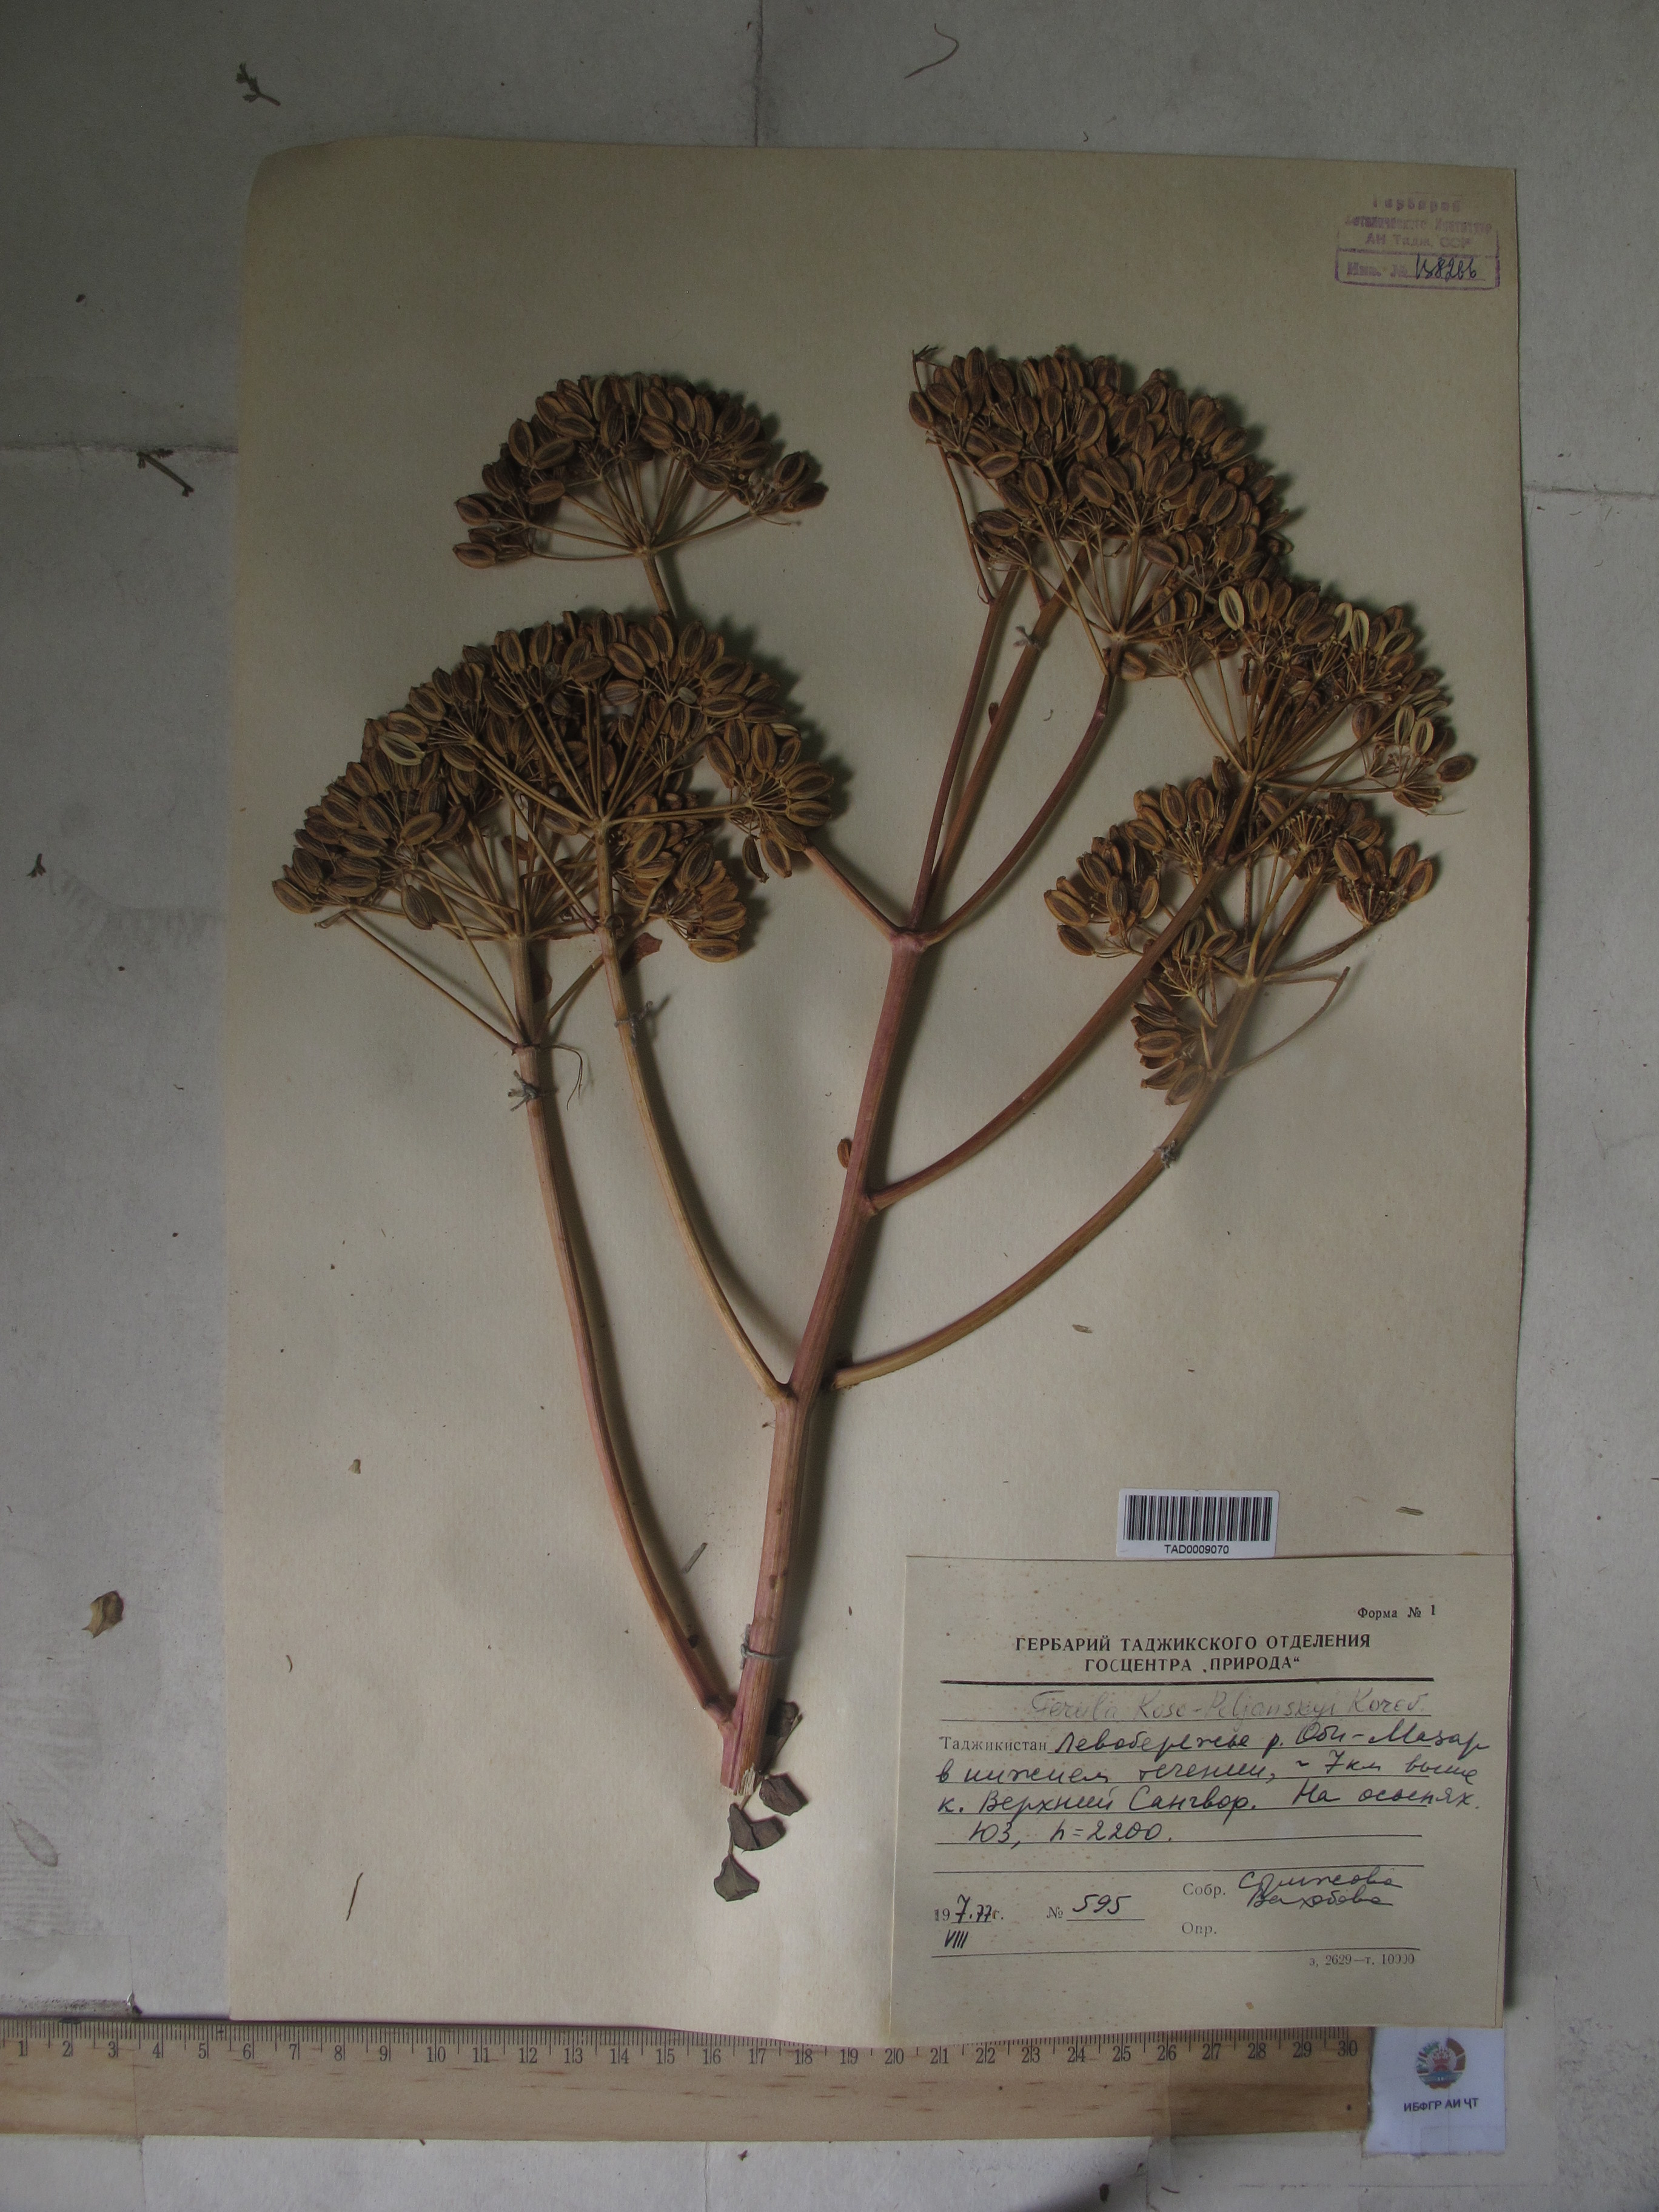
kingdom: Plantae
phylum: Tracheophyta
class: Magnoliopsida
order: Apiales
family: Apiaceae
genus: Ferula
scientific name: Ferula
